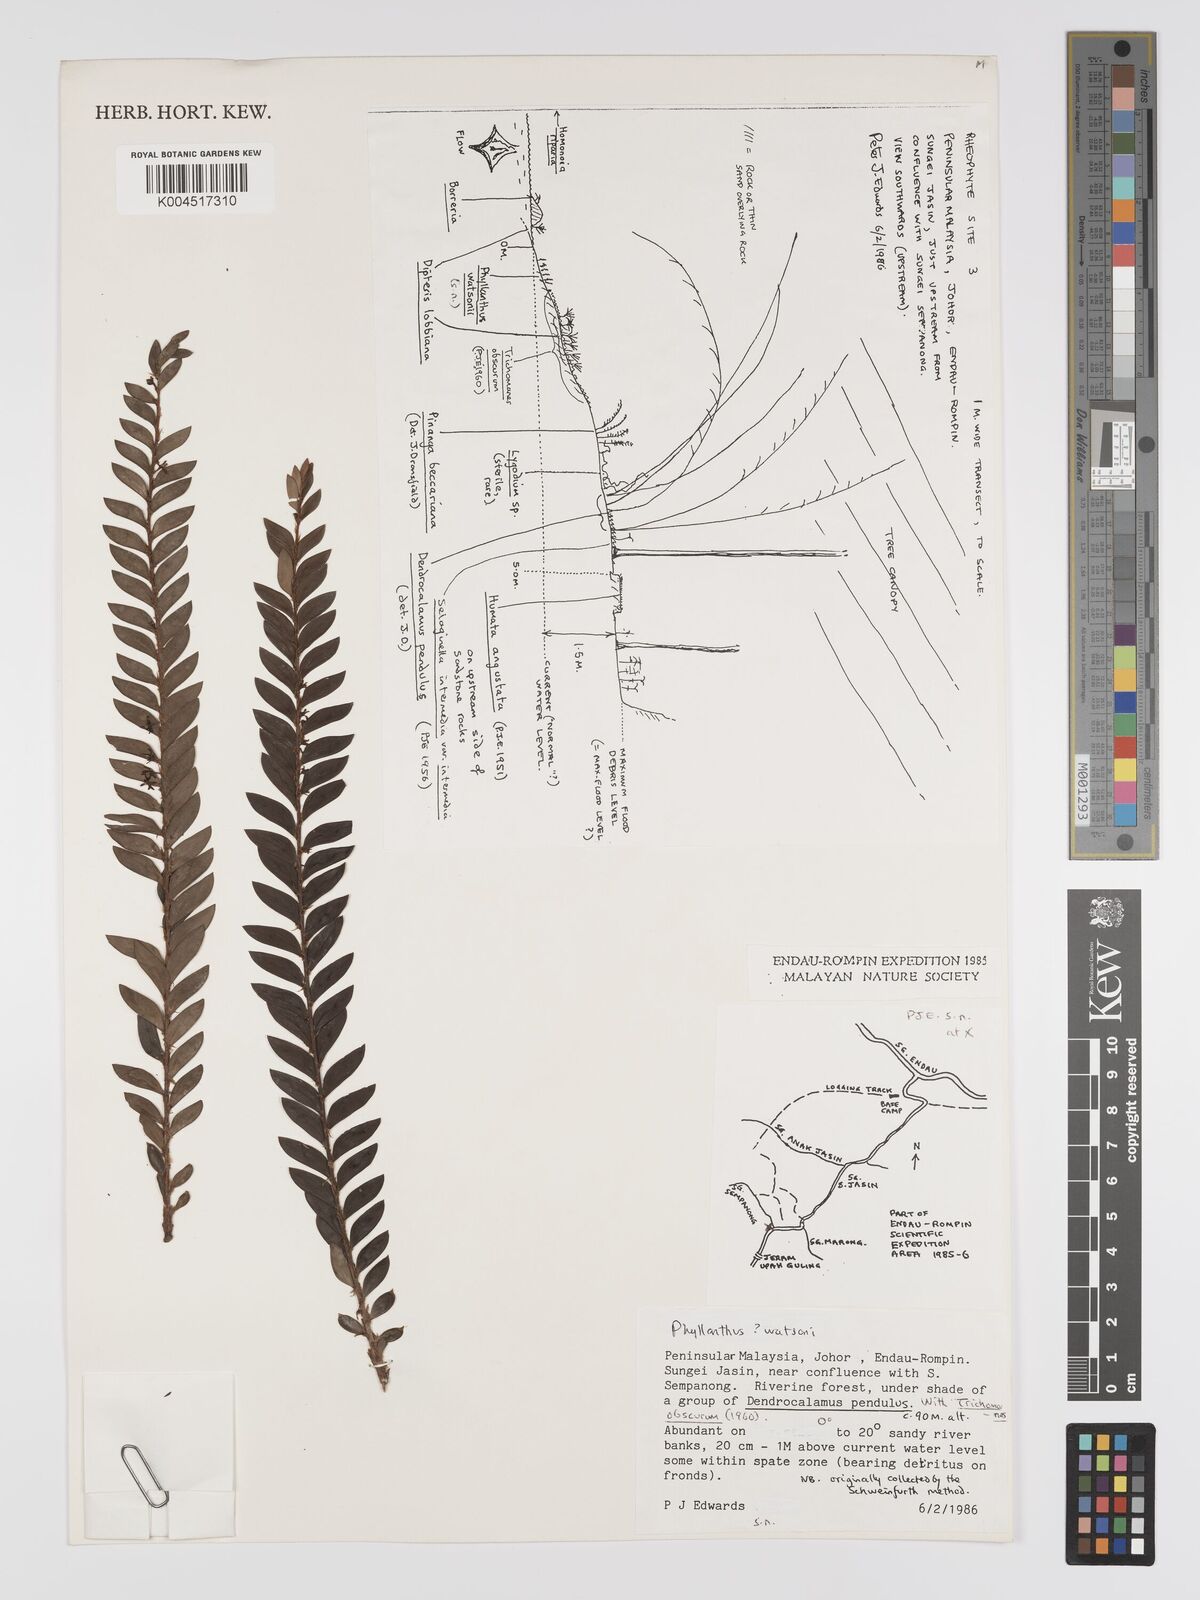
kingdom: Plantae
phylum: Tracheophyta
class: Magnoliopsida
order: Malpighiales
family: Phyllanthaceae
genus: Phyllanthus
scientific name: Phyllanthus watsonii
